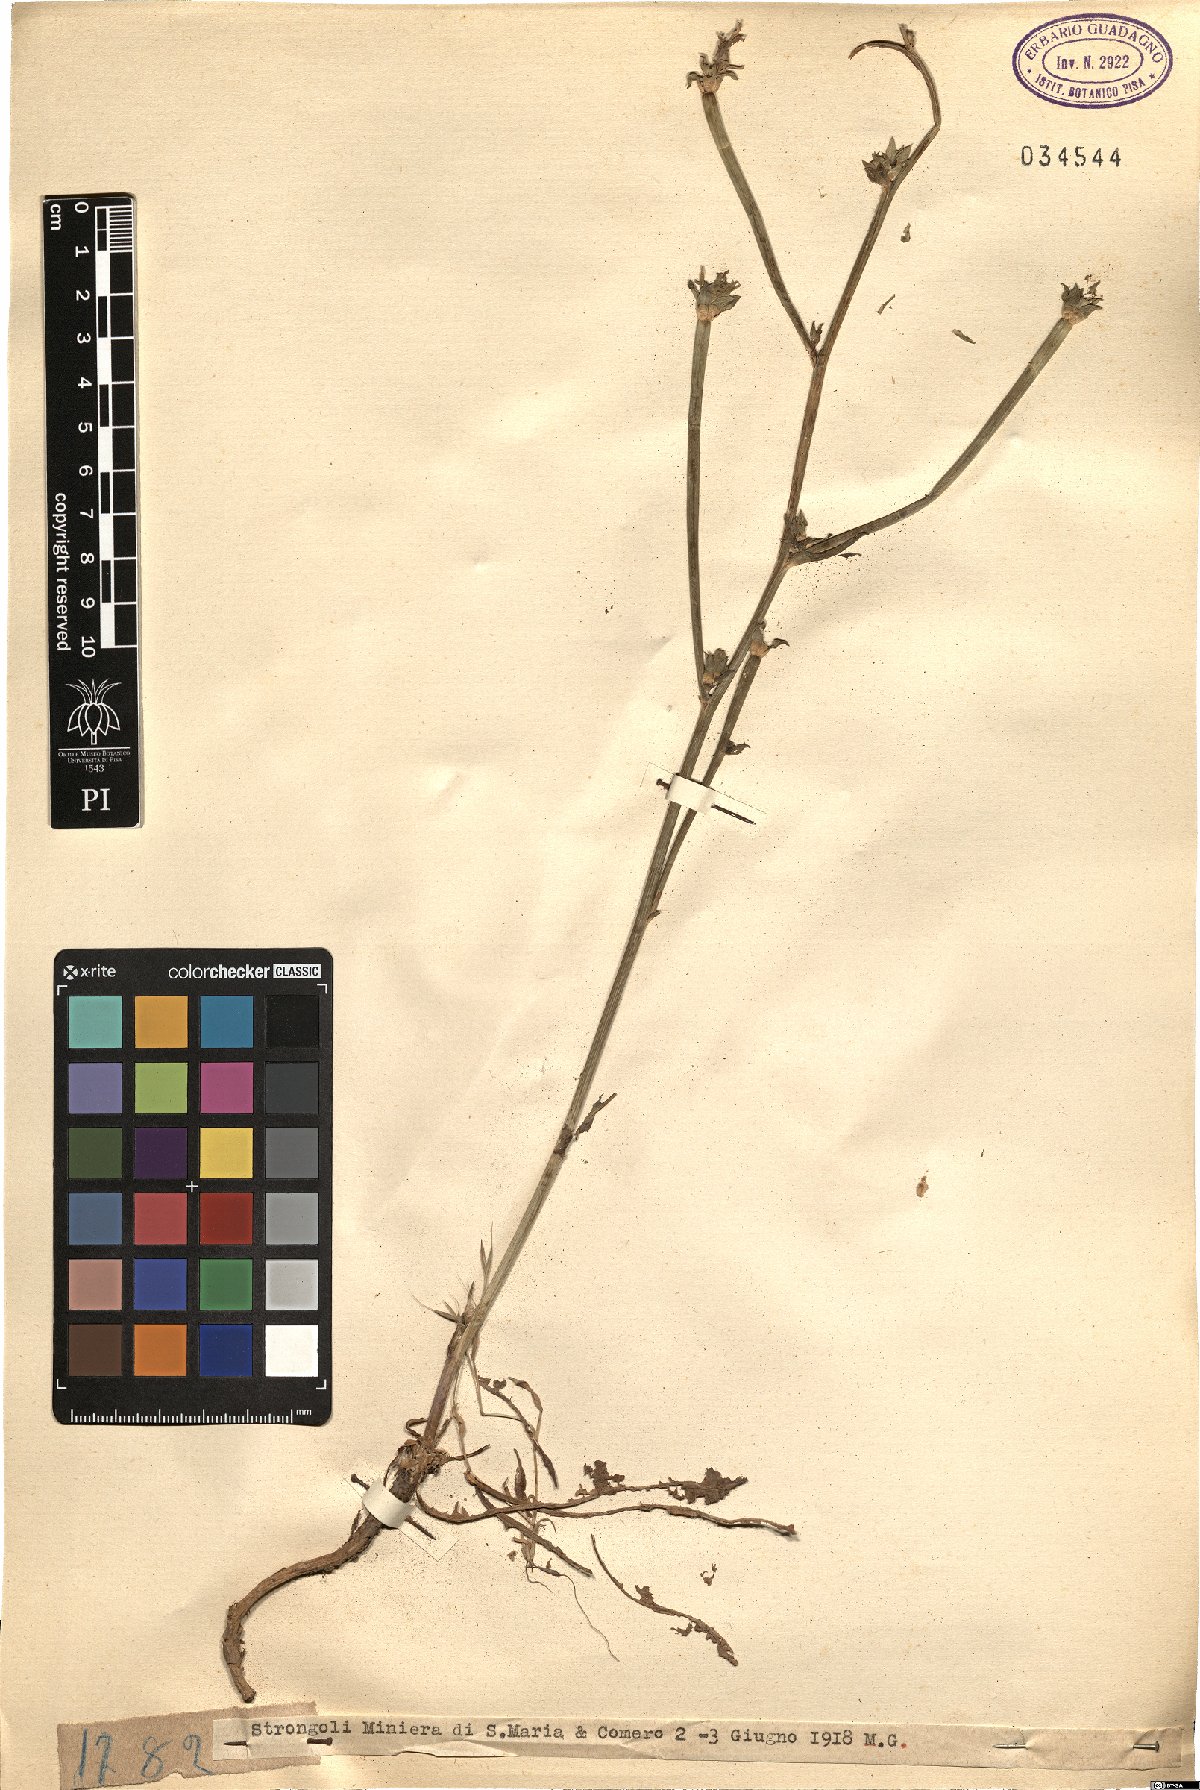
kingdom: Plantae
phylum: Tracheophyta
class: Magnoliopsida
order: Asterales
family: Asteraceae
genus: Cichorium
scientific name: Cichorium
